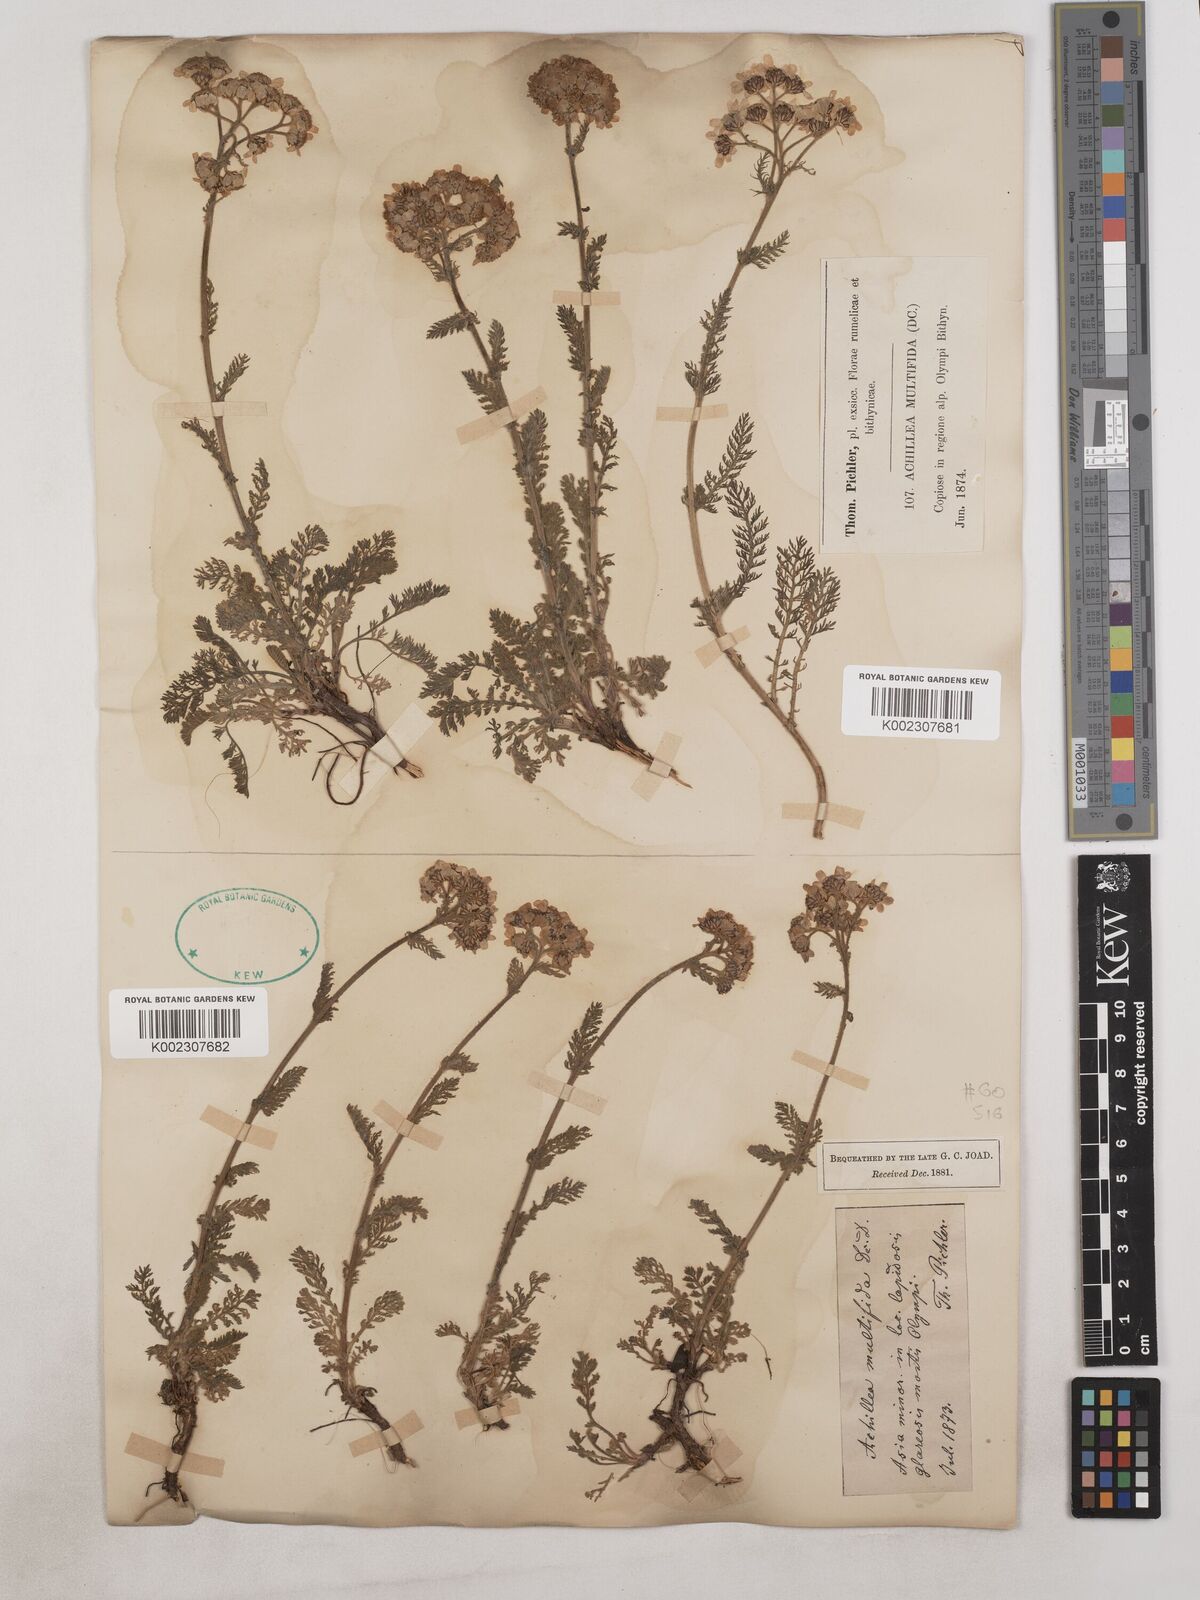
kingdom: Plantae
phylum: Tracheophyta
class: Magnoliopsida
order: Asterales
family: Asteraceae
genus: Achillea
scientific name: Achillea multifida
